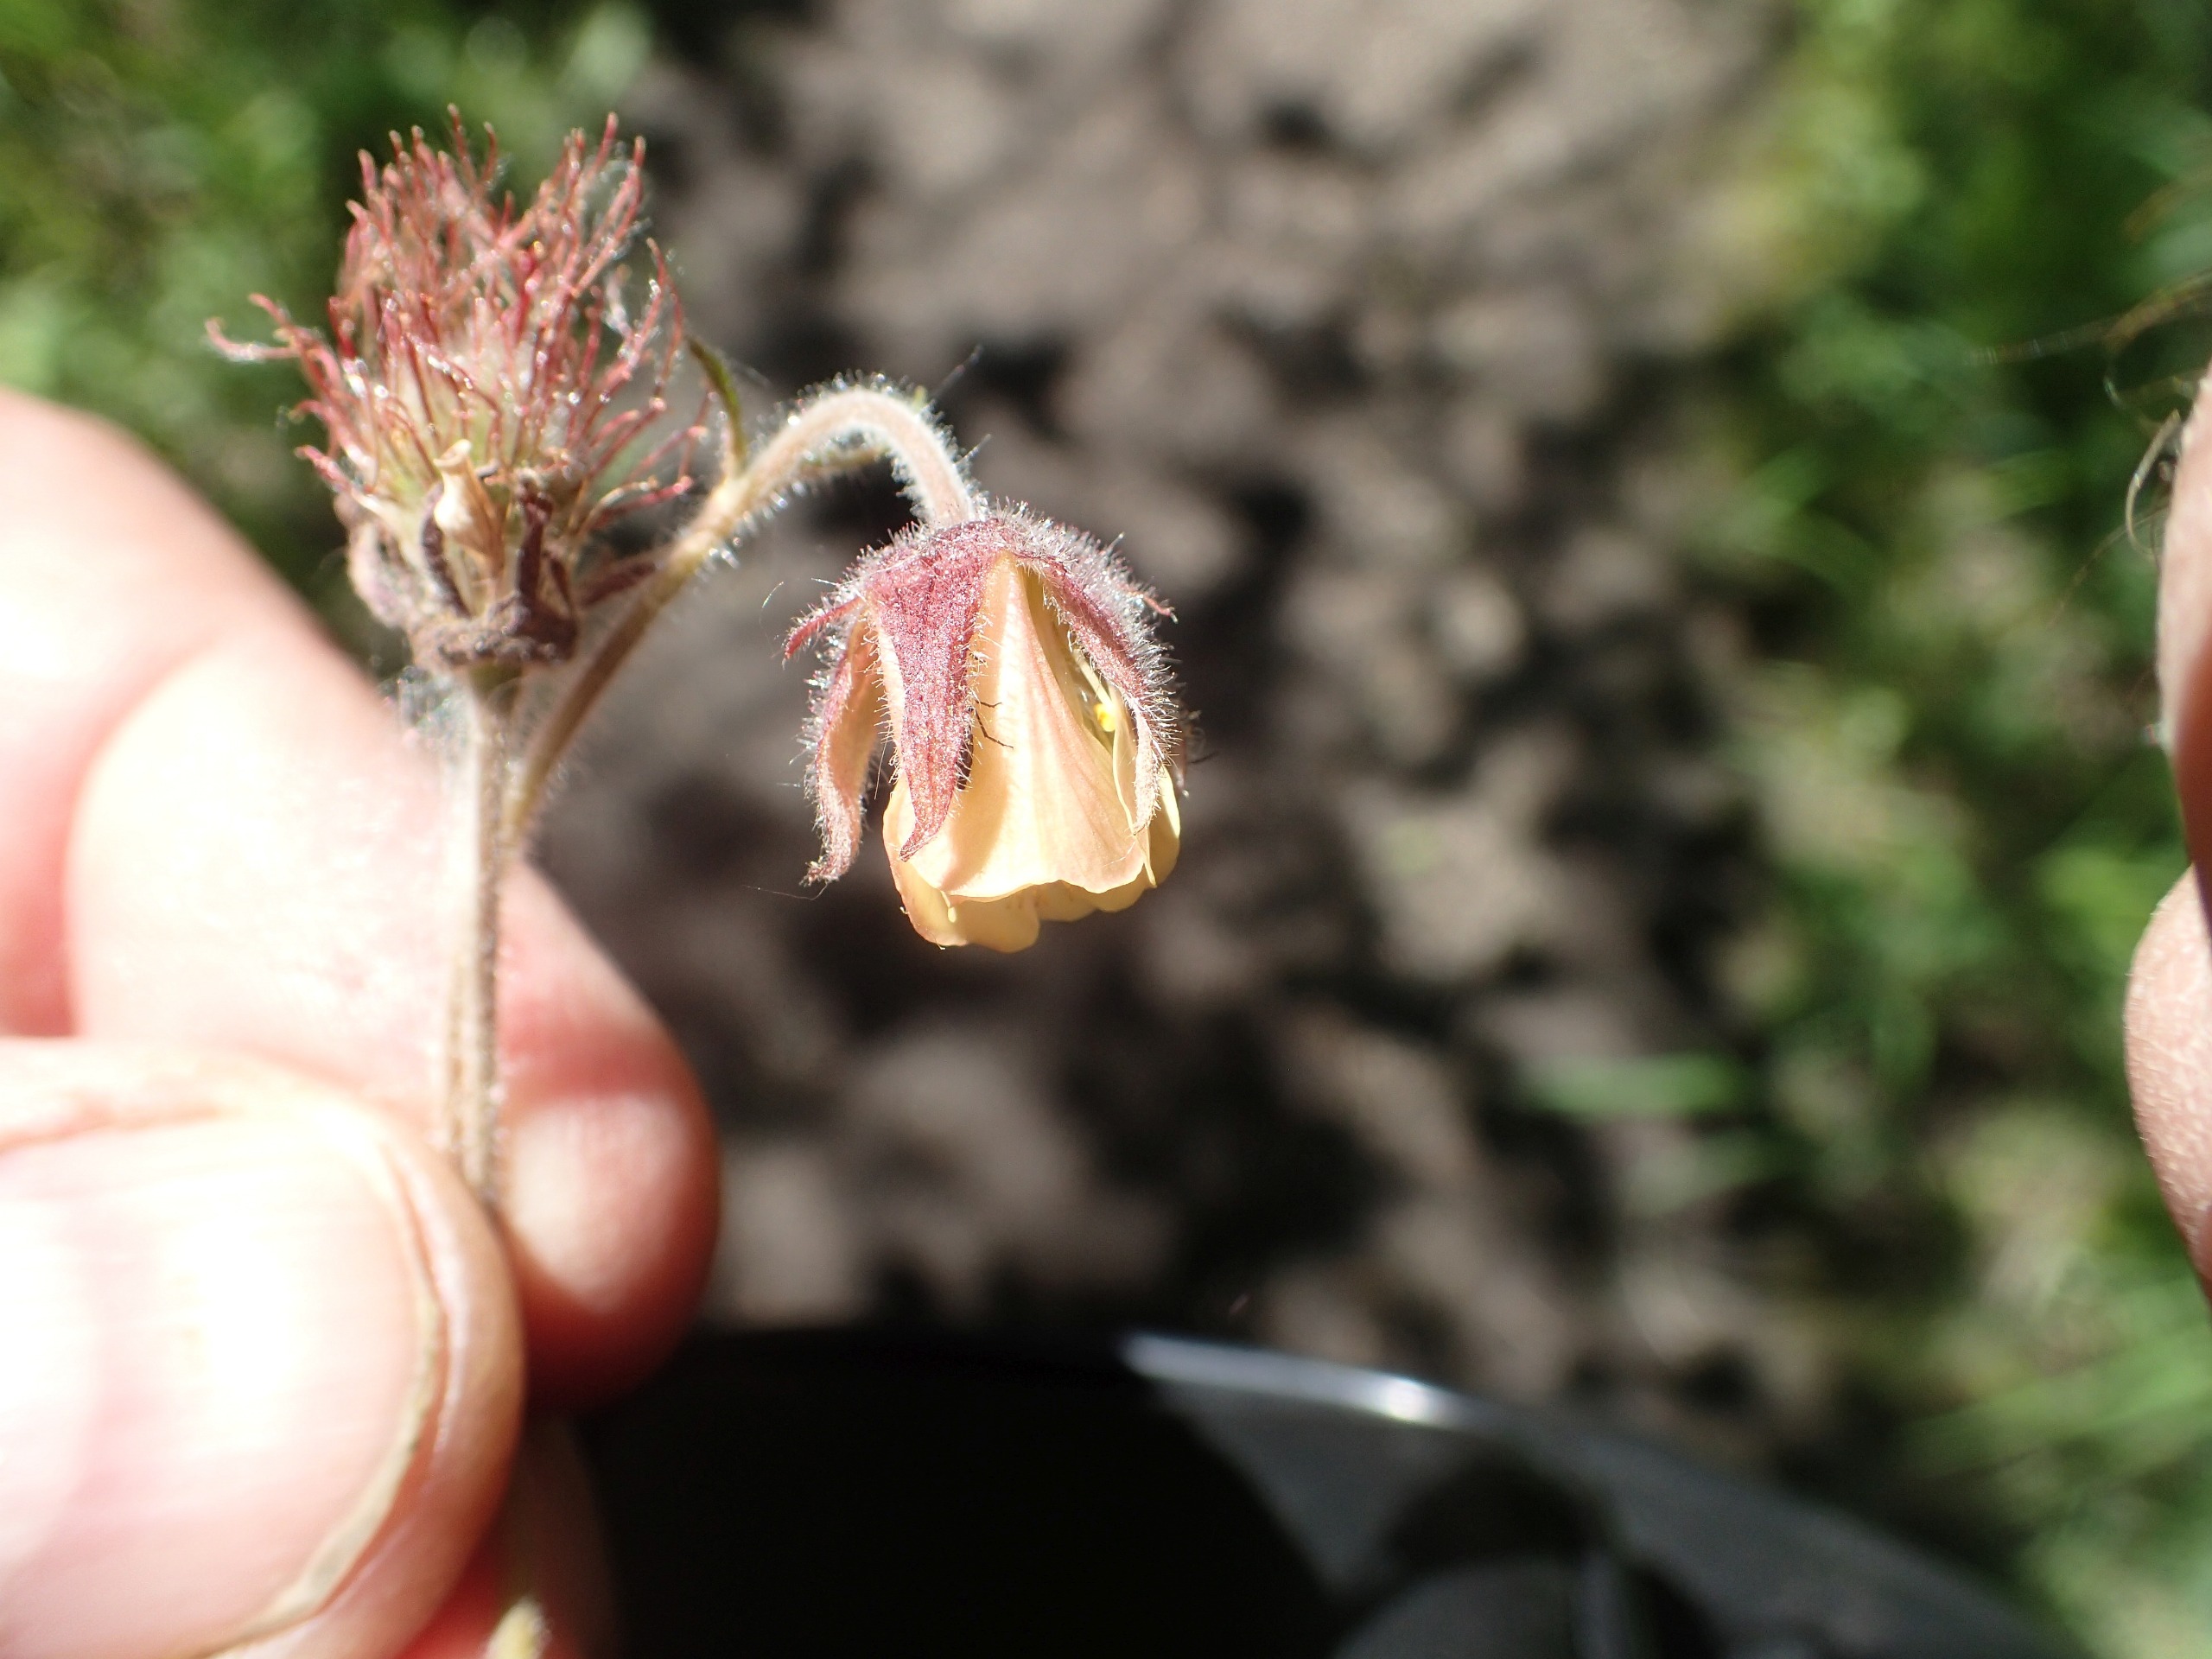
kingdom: Plantae
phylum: Tracheophyta
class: Magnoliopsida
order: Rosales
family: Rosaceae
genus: Geum
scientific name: Geum rivale
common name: Eng-nellikerod
